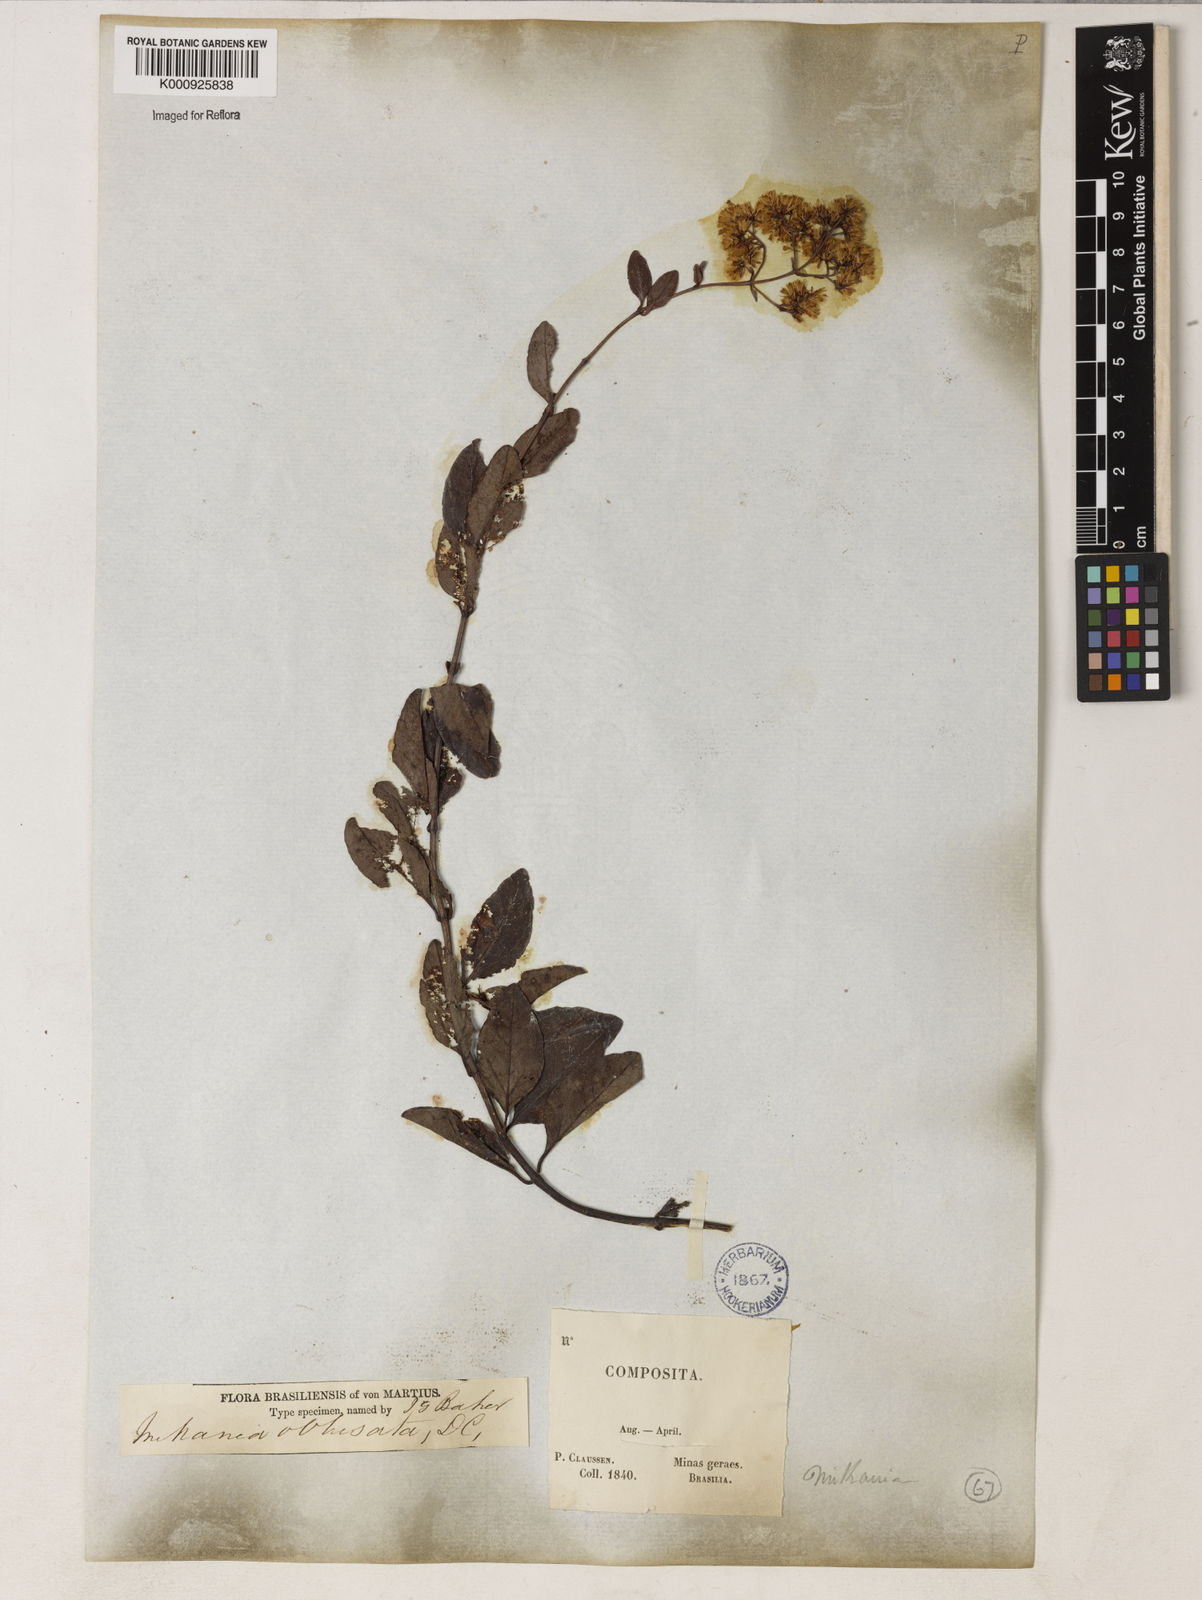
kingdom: Plantae
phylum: Tracheophyta
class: Magnoliopsida
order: Asterales
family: Asteraceae
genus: Mikania
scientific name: Mikania obtusata
